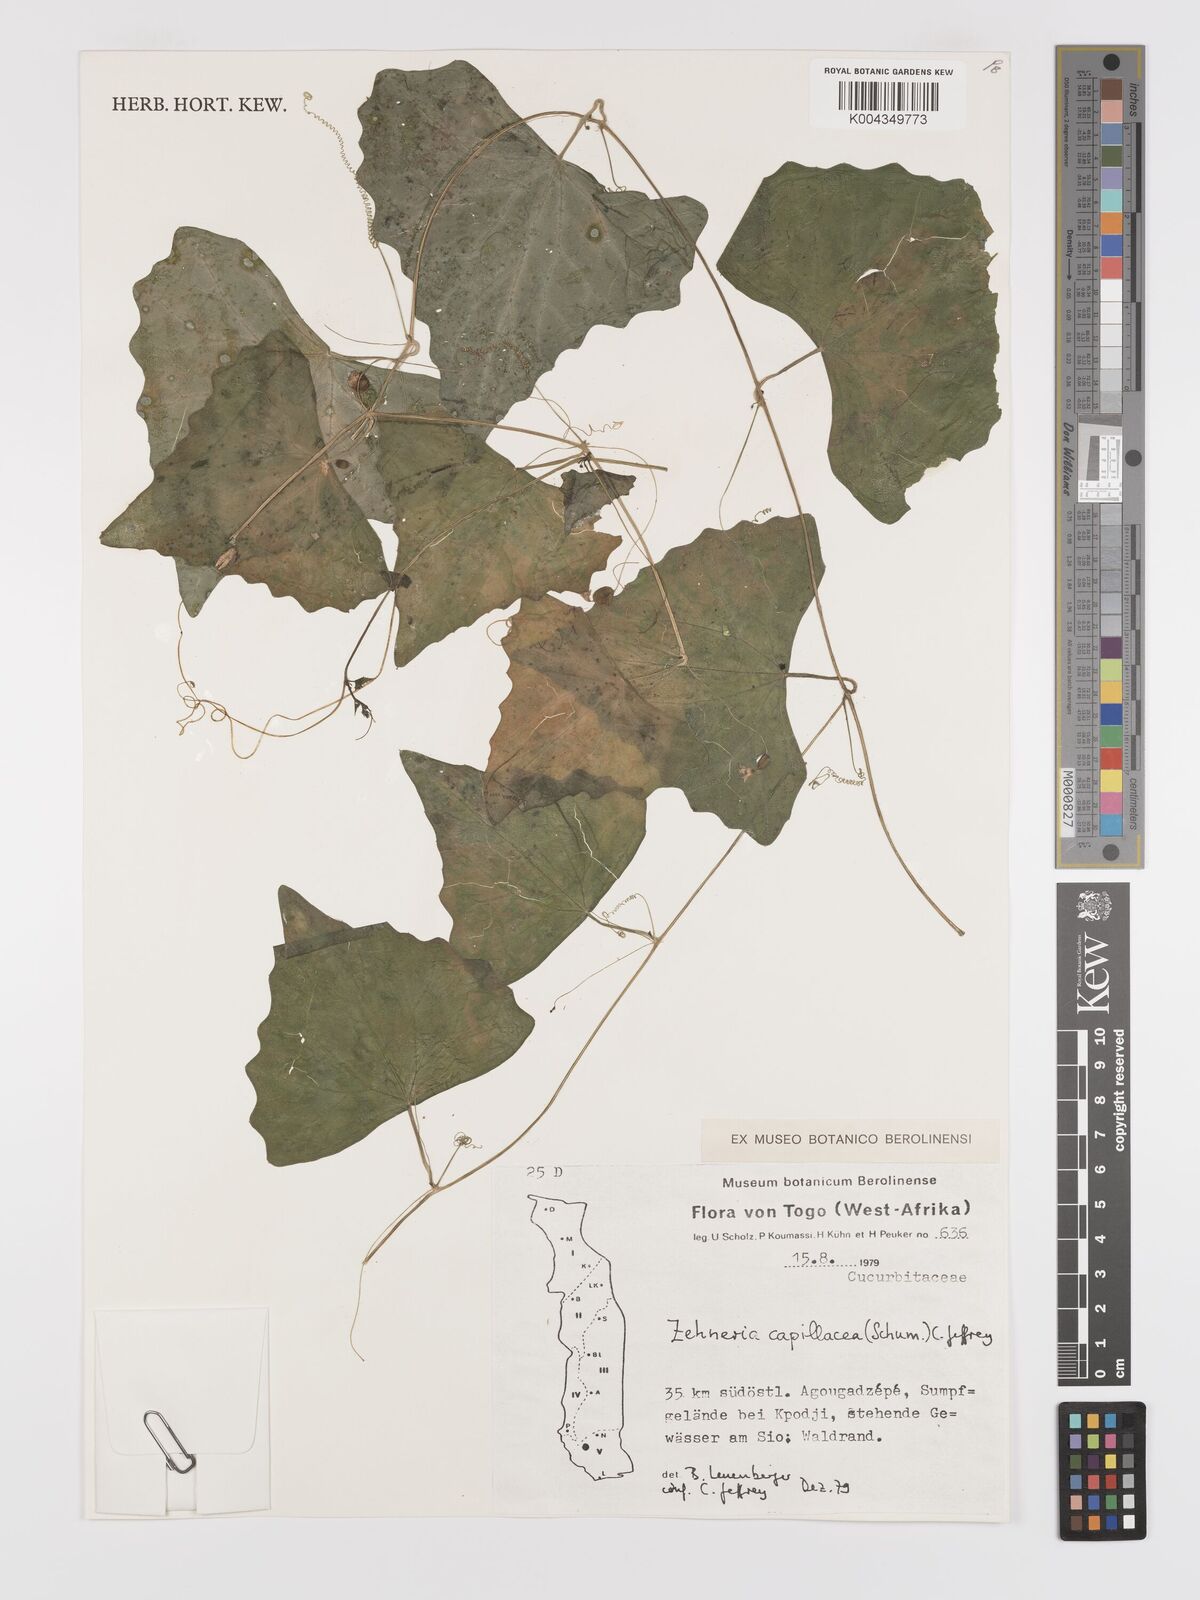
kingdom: Plantae
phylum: Tracheophyta
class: Magnoliopsida
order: Cucurbitales
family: Cucurbitaceae
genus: Zehneria
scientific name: Zehneria capillacea
